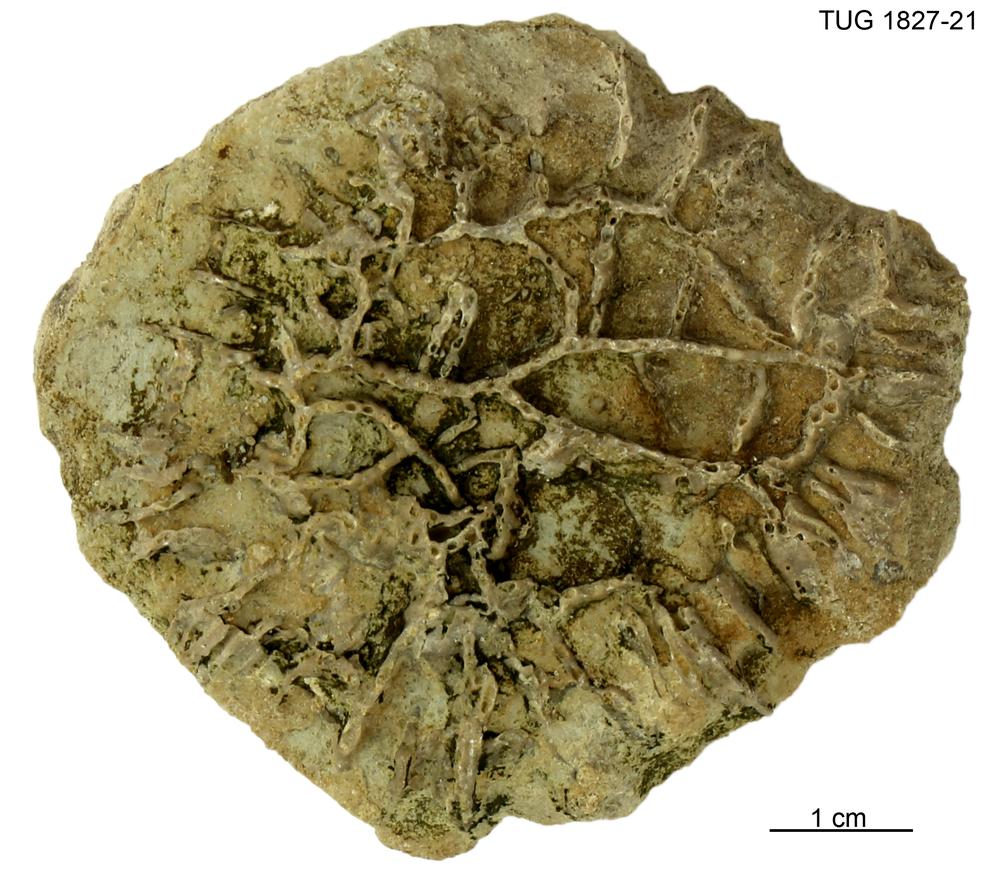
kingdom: Animalia
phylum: Cnidaria
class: Anthozoa
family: Cateniporidae
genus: Catenipora
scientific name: Catenipora
